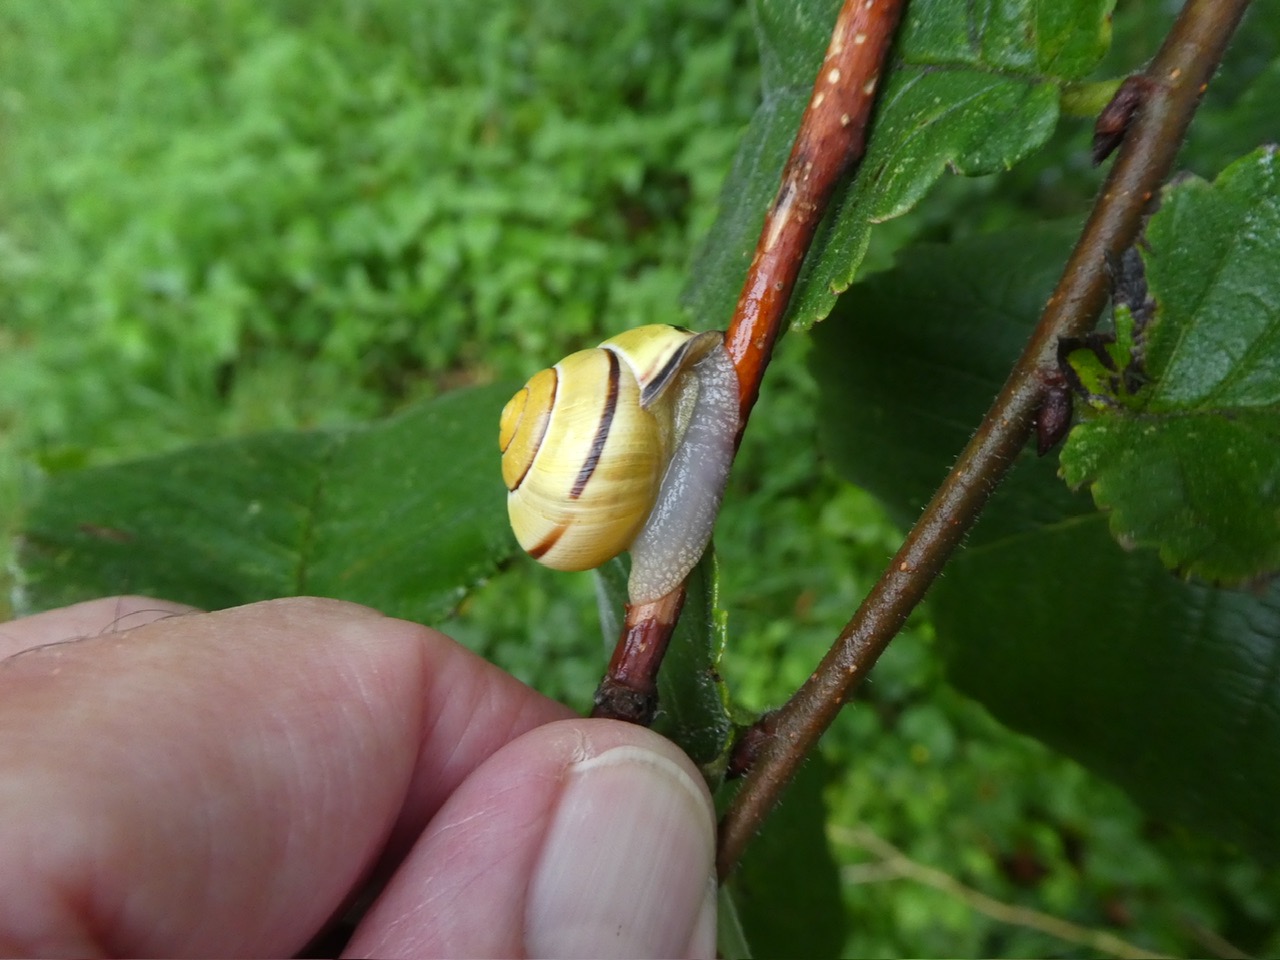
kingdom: Animalia
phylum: Mollusca
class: Gastropoda
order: Stylommatophora
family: Helicidae
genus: Cepaea
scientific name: Cepaea nemoralis
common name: Lundsnegl
